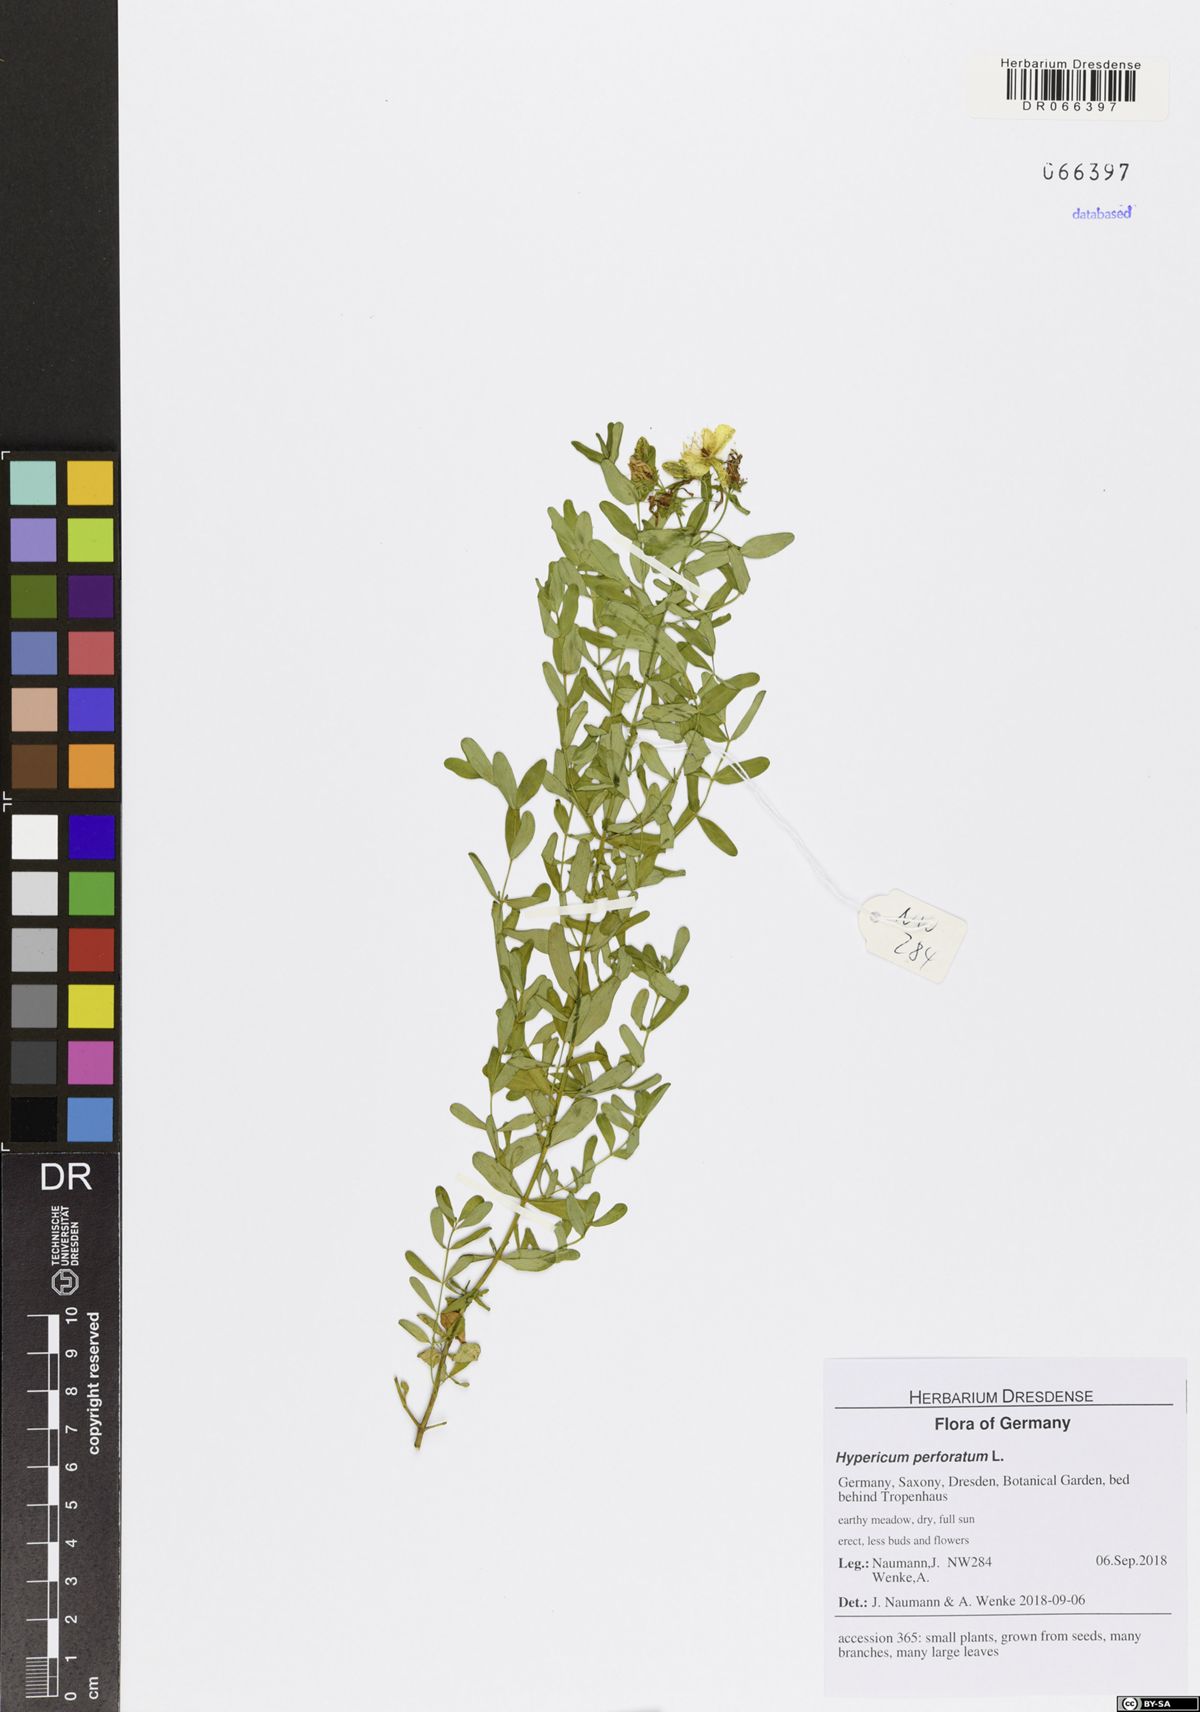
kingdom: Plantae
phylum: Tracheophyta
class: Magnoliopsida
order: Malpighiales
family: Hypericaceae
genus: Hypericum
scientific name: Hypericum perforatum
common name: Common st. johnswort
